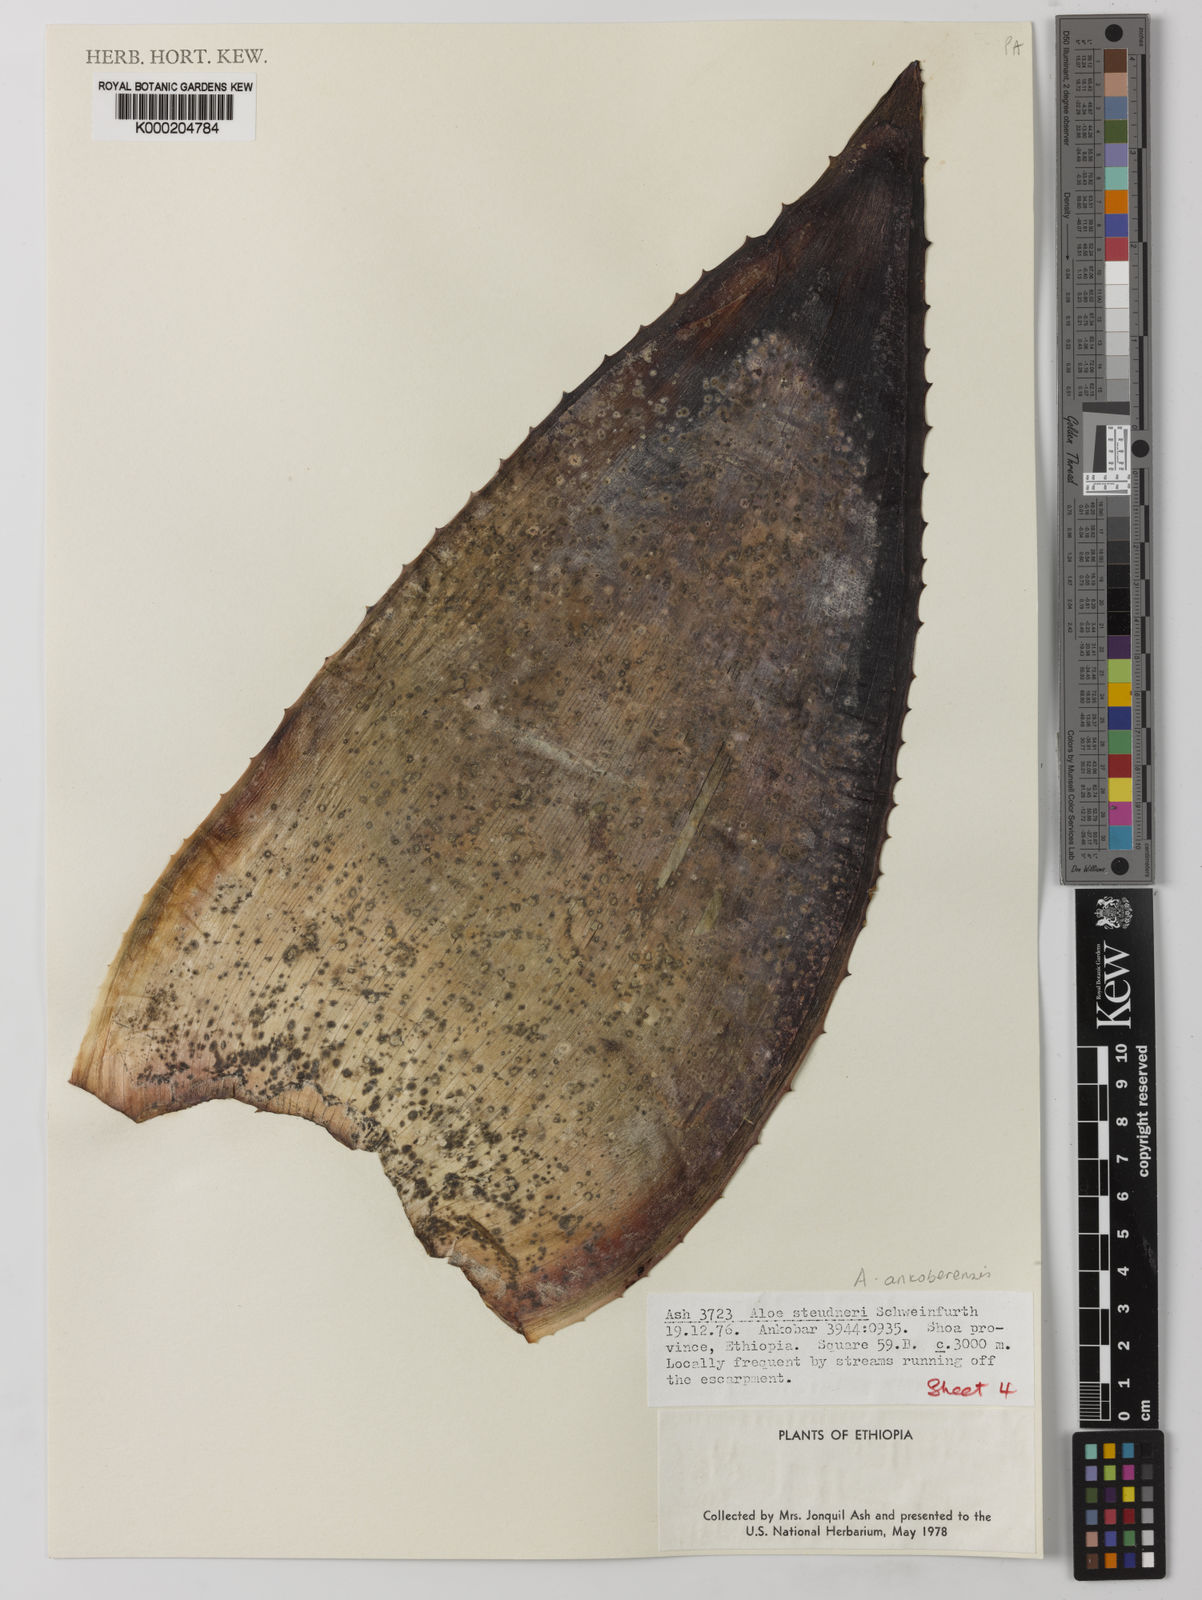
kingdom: Plantae
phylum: Tracheophyta
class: Liliopsida
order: Asparagales
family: Asphodelaceae
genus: Aloe
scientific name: Aloe ankoberensis
